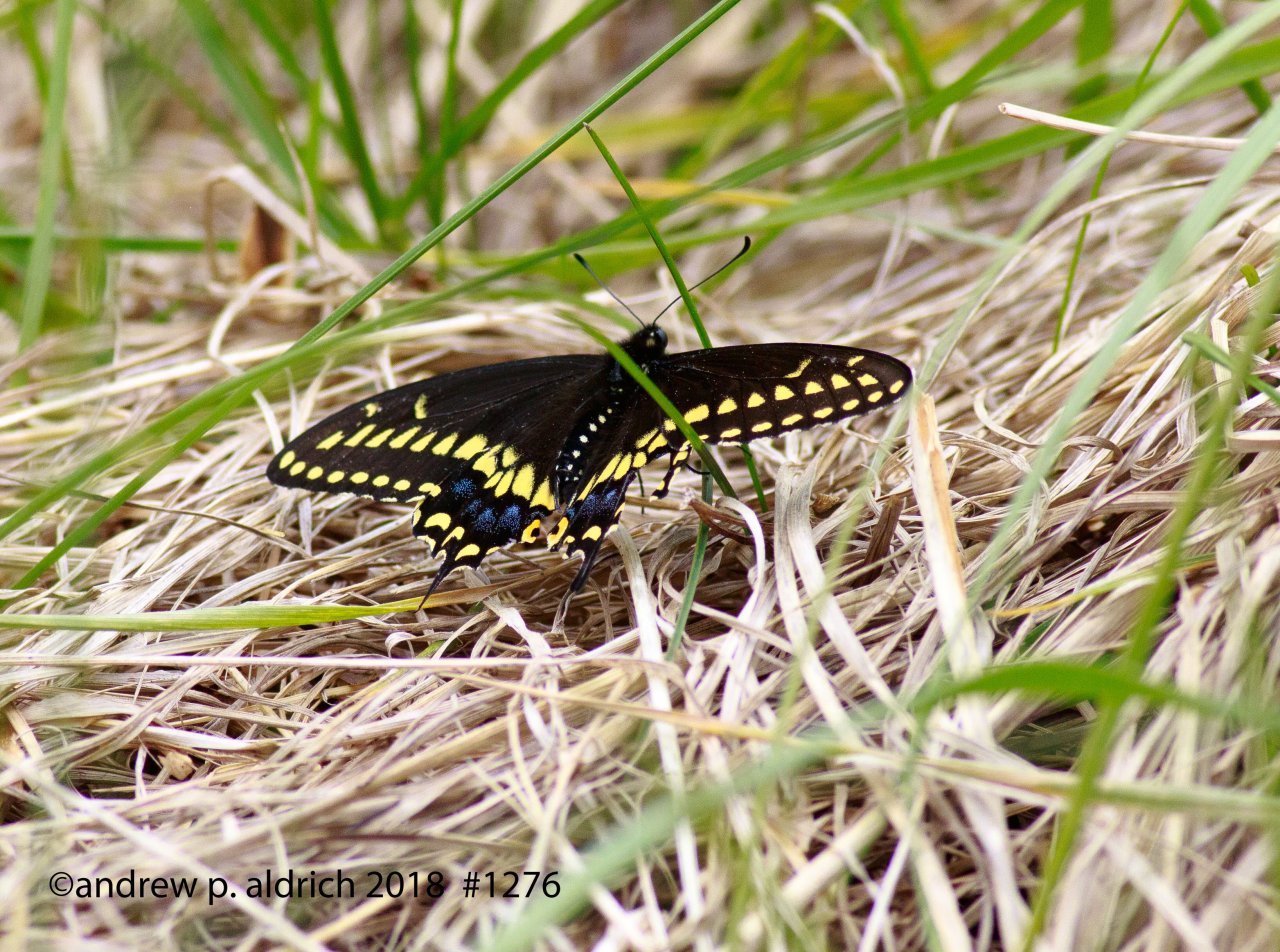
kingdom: Animalia
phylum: Arthropoda
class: Insecta
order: Lepidoptera
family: Papilionidae
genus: Papilio
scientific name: Papilio polyxenes
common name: Black Swallowtail
